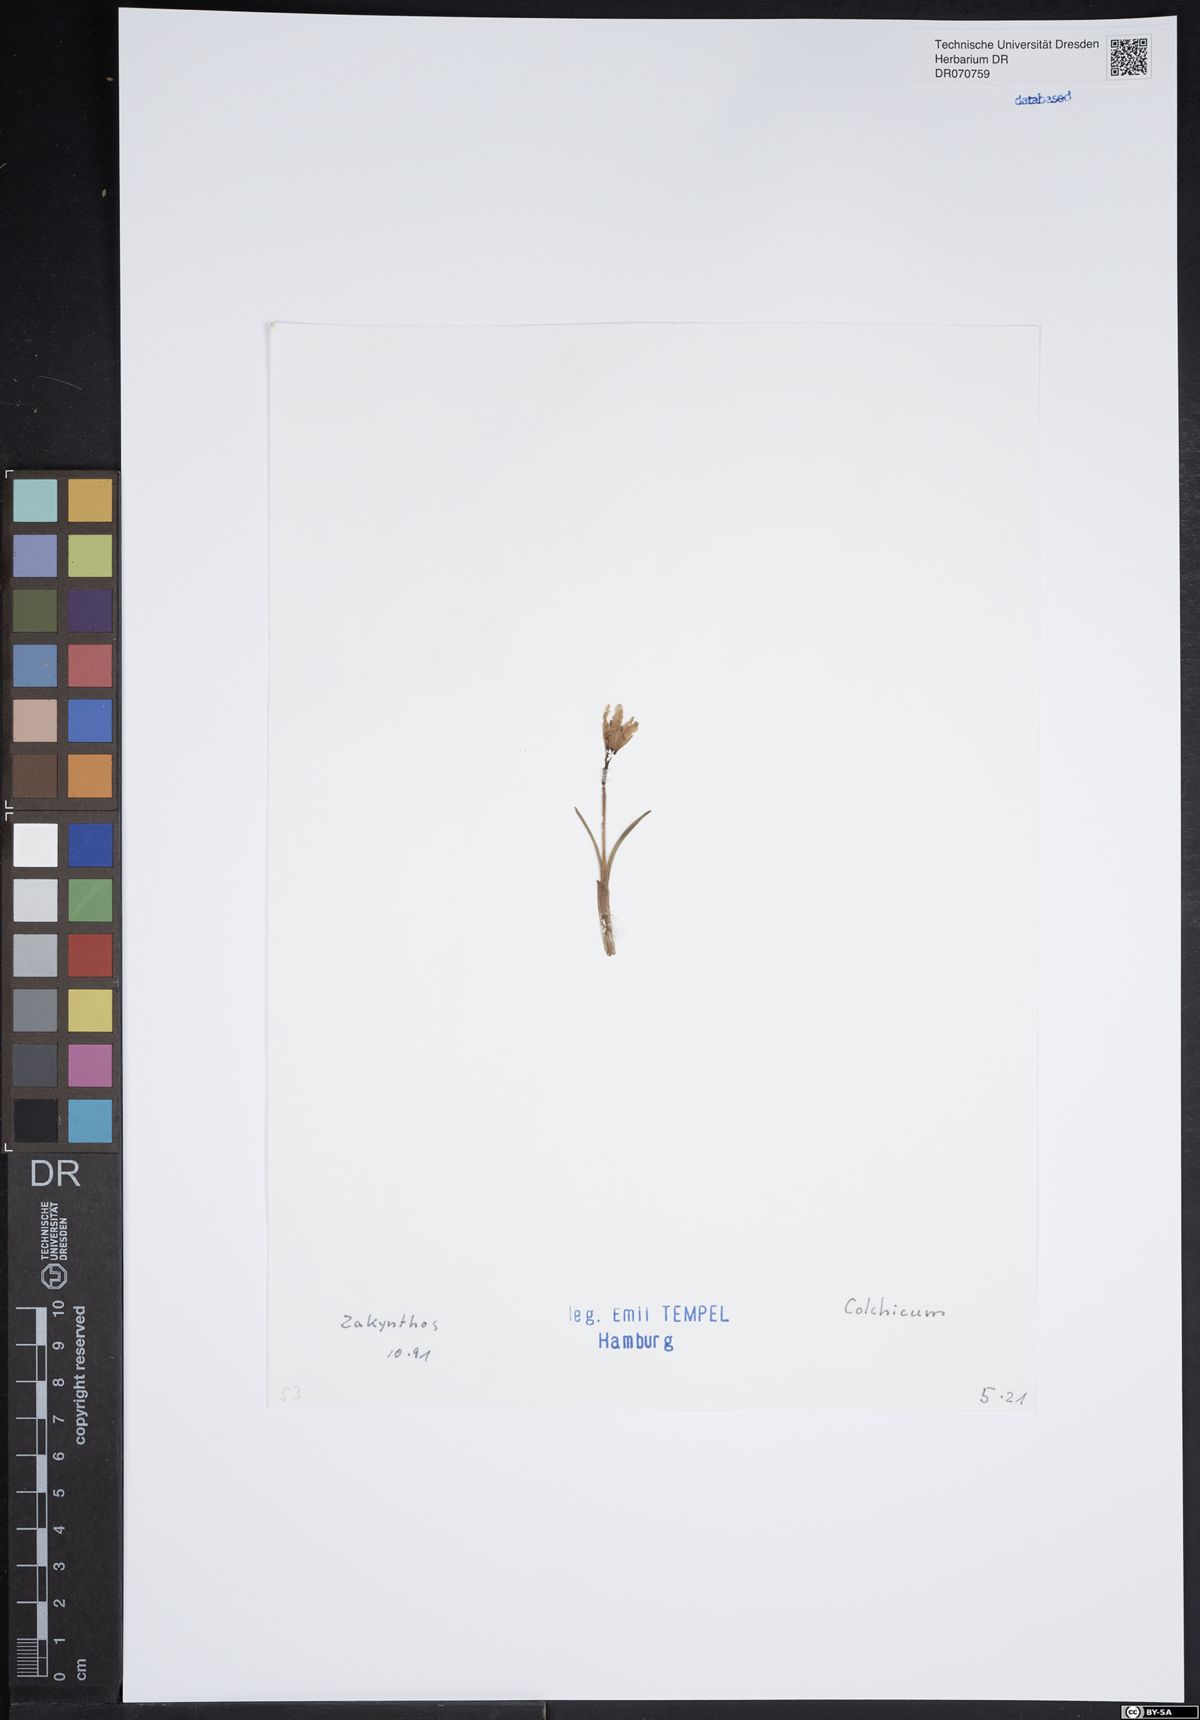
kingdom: Plantae
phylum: Tracheophyta
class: Liliopsida
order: Liliales
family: Colchicaceae
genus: Colchicum
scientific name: Colchicum
